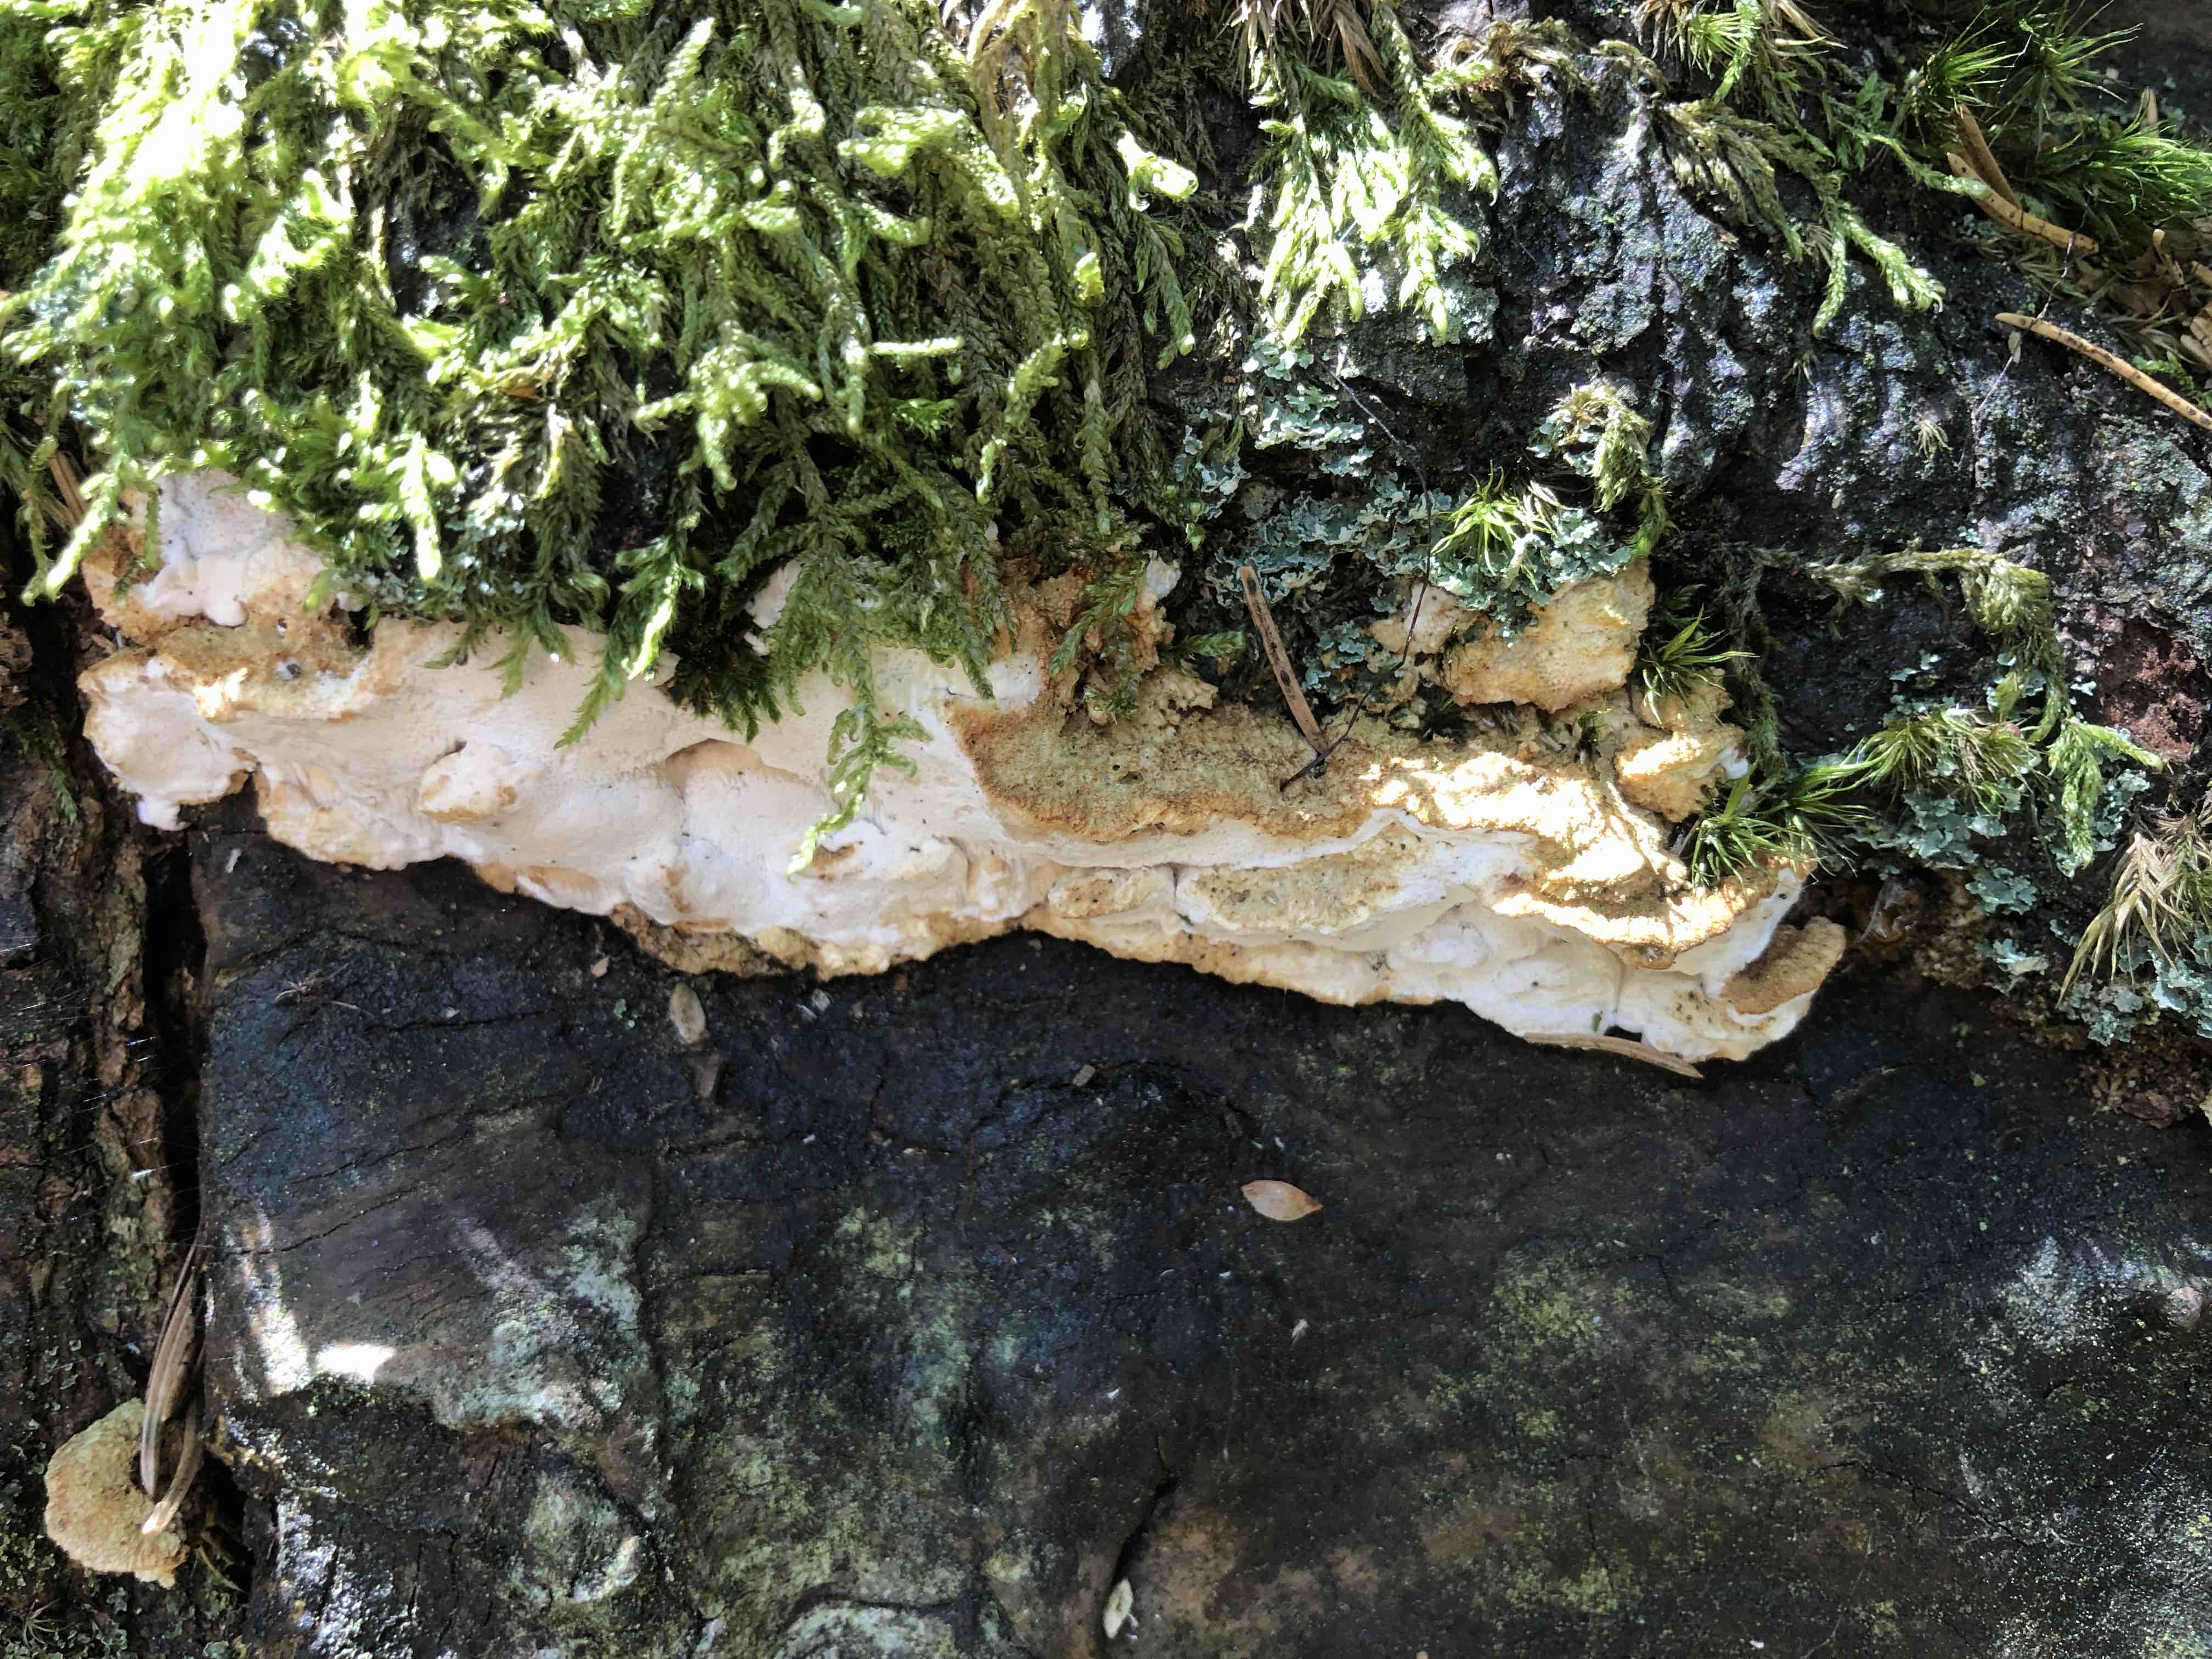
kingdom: Fungi
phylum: Basidiomycota
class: Agaricomycetes
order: Polyporales
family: Fomitopsidaceae
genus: Neoantrodia
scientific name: Neoantrodia serialis
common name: række-sejporesvamp
